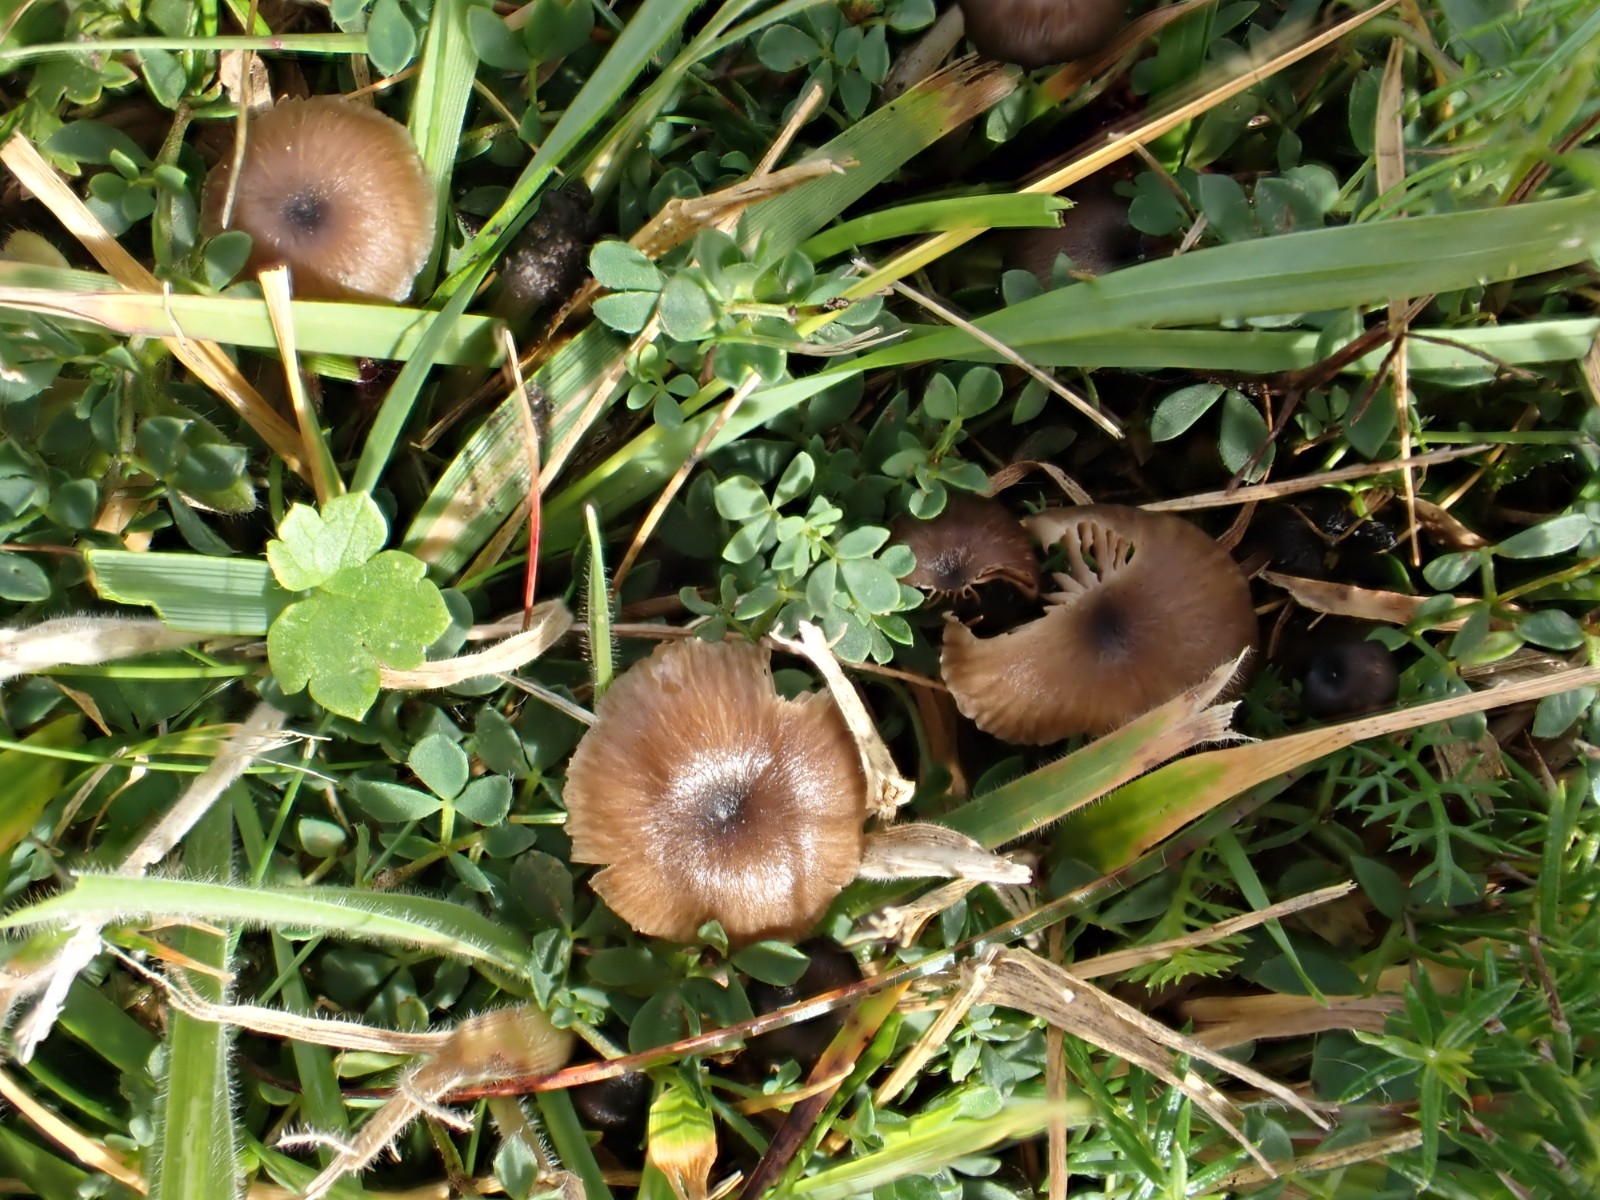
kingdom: Fungi
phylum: Basidiomycota
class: Agaricomycetes
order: Agaricales
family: Entolomataceae
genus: Entoloma
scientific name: Entoloma
